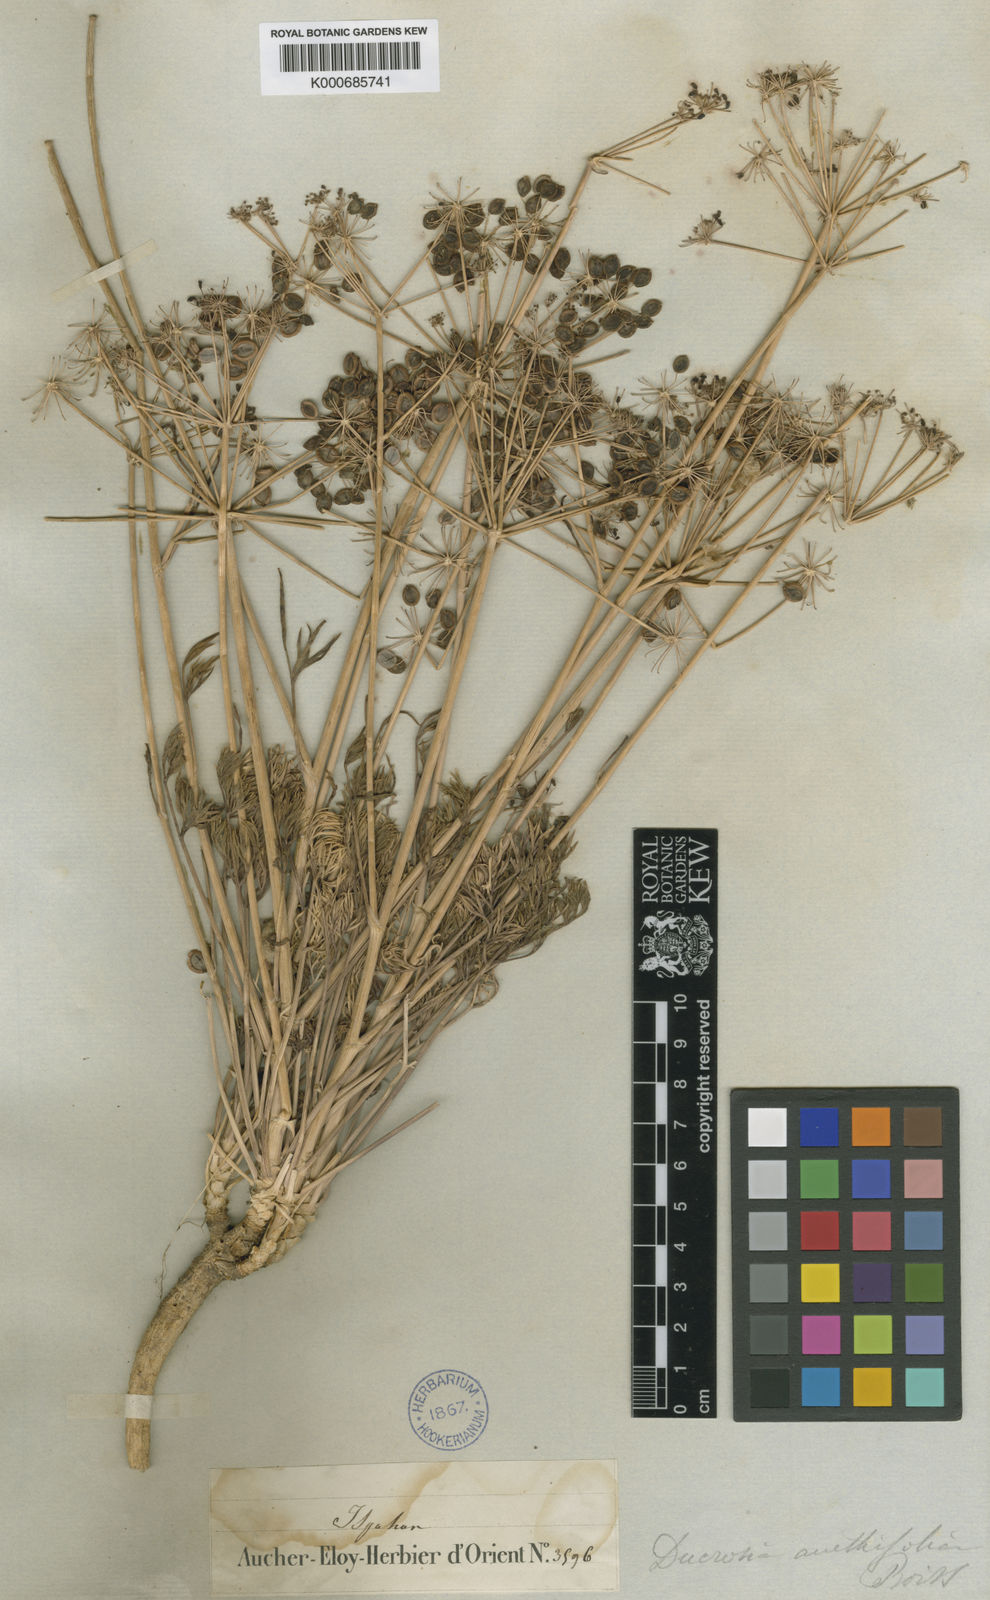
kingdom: Plantae
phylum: Tracheophyta
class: Magnoliopsida
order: Apiales
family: Apiaceae
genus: Ducrosia
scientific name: Ducrosia anethifolia
